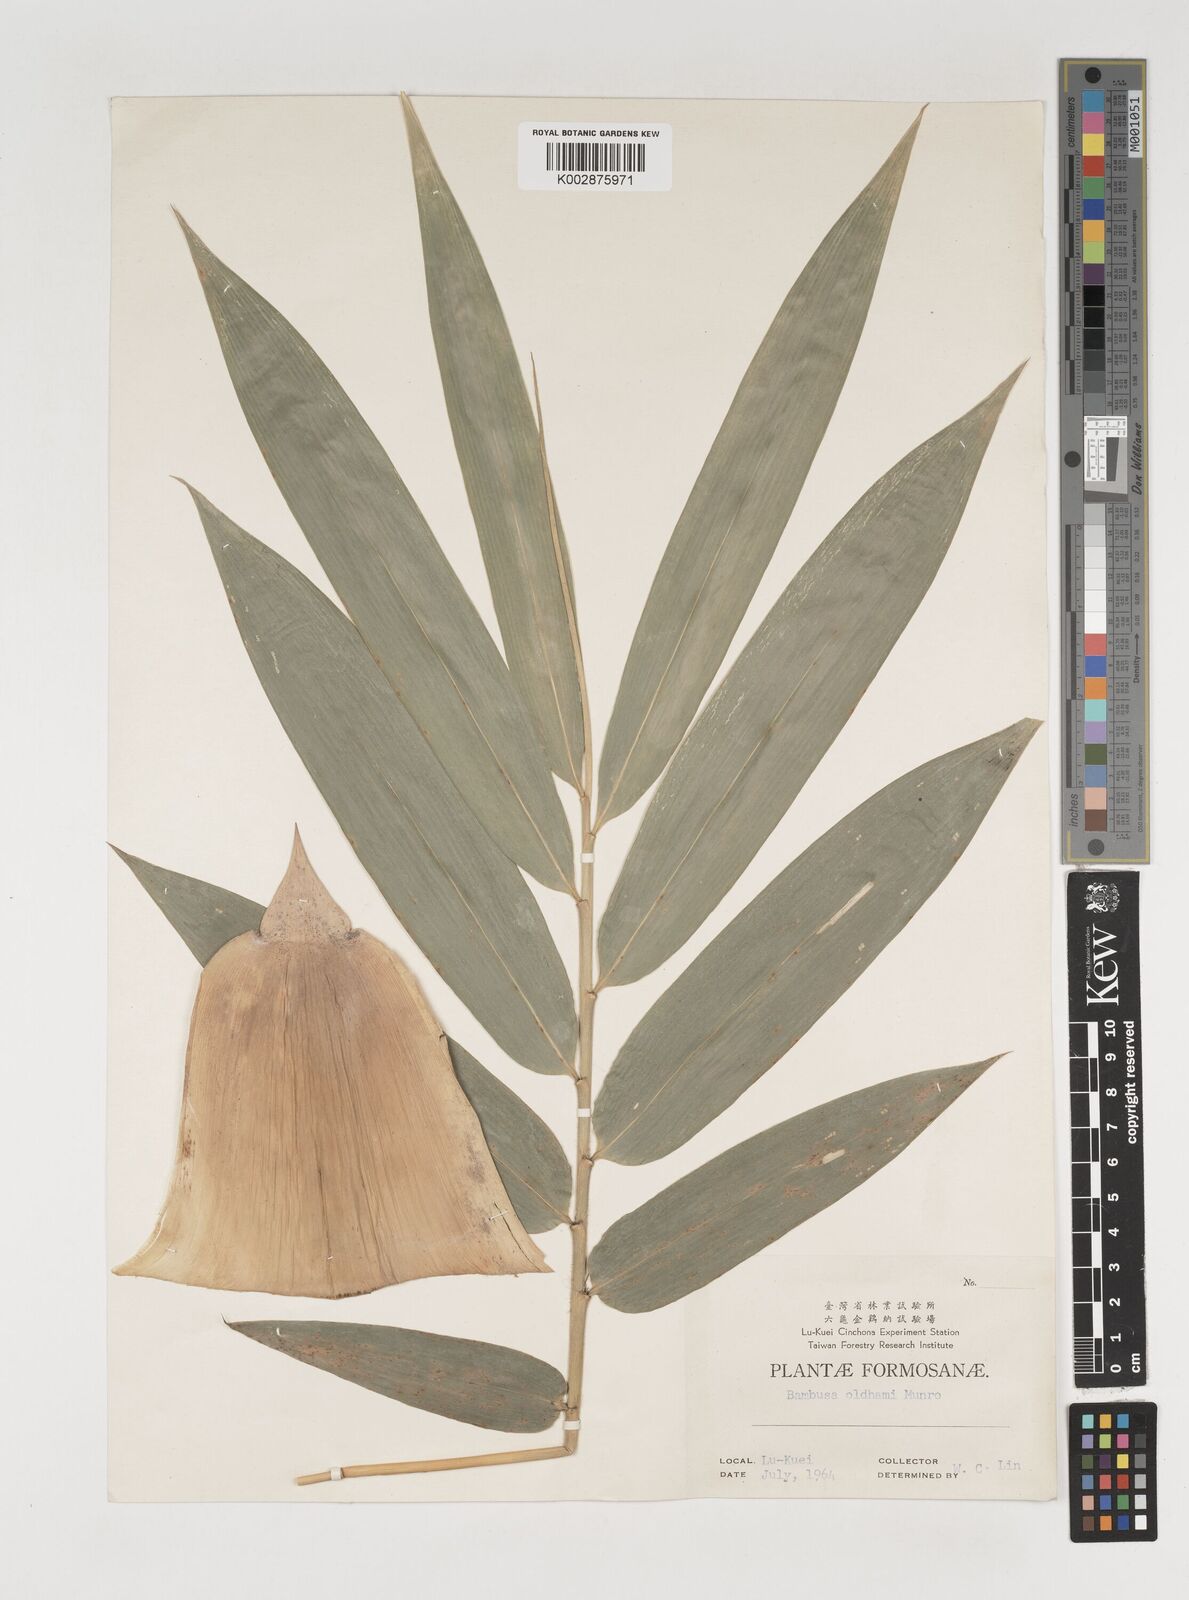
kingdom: Plantae
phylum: Tracheophyta
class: Liliopsida
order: Poales
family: Poaceae
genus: Bambusa
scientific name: Bambusa oldhamii
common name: Giant timber bamboo
